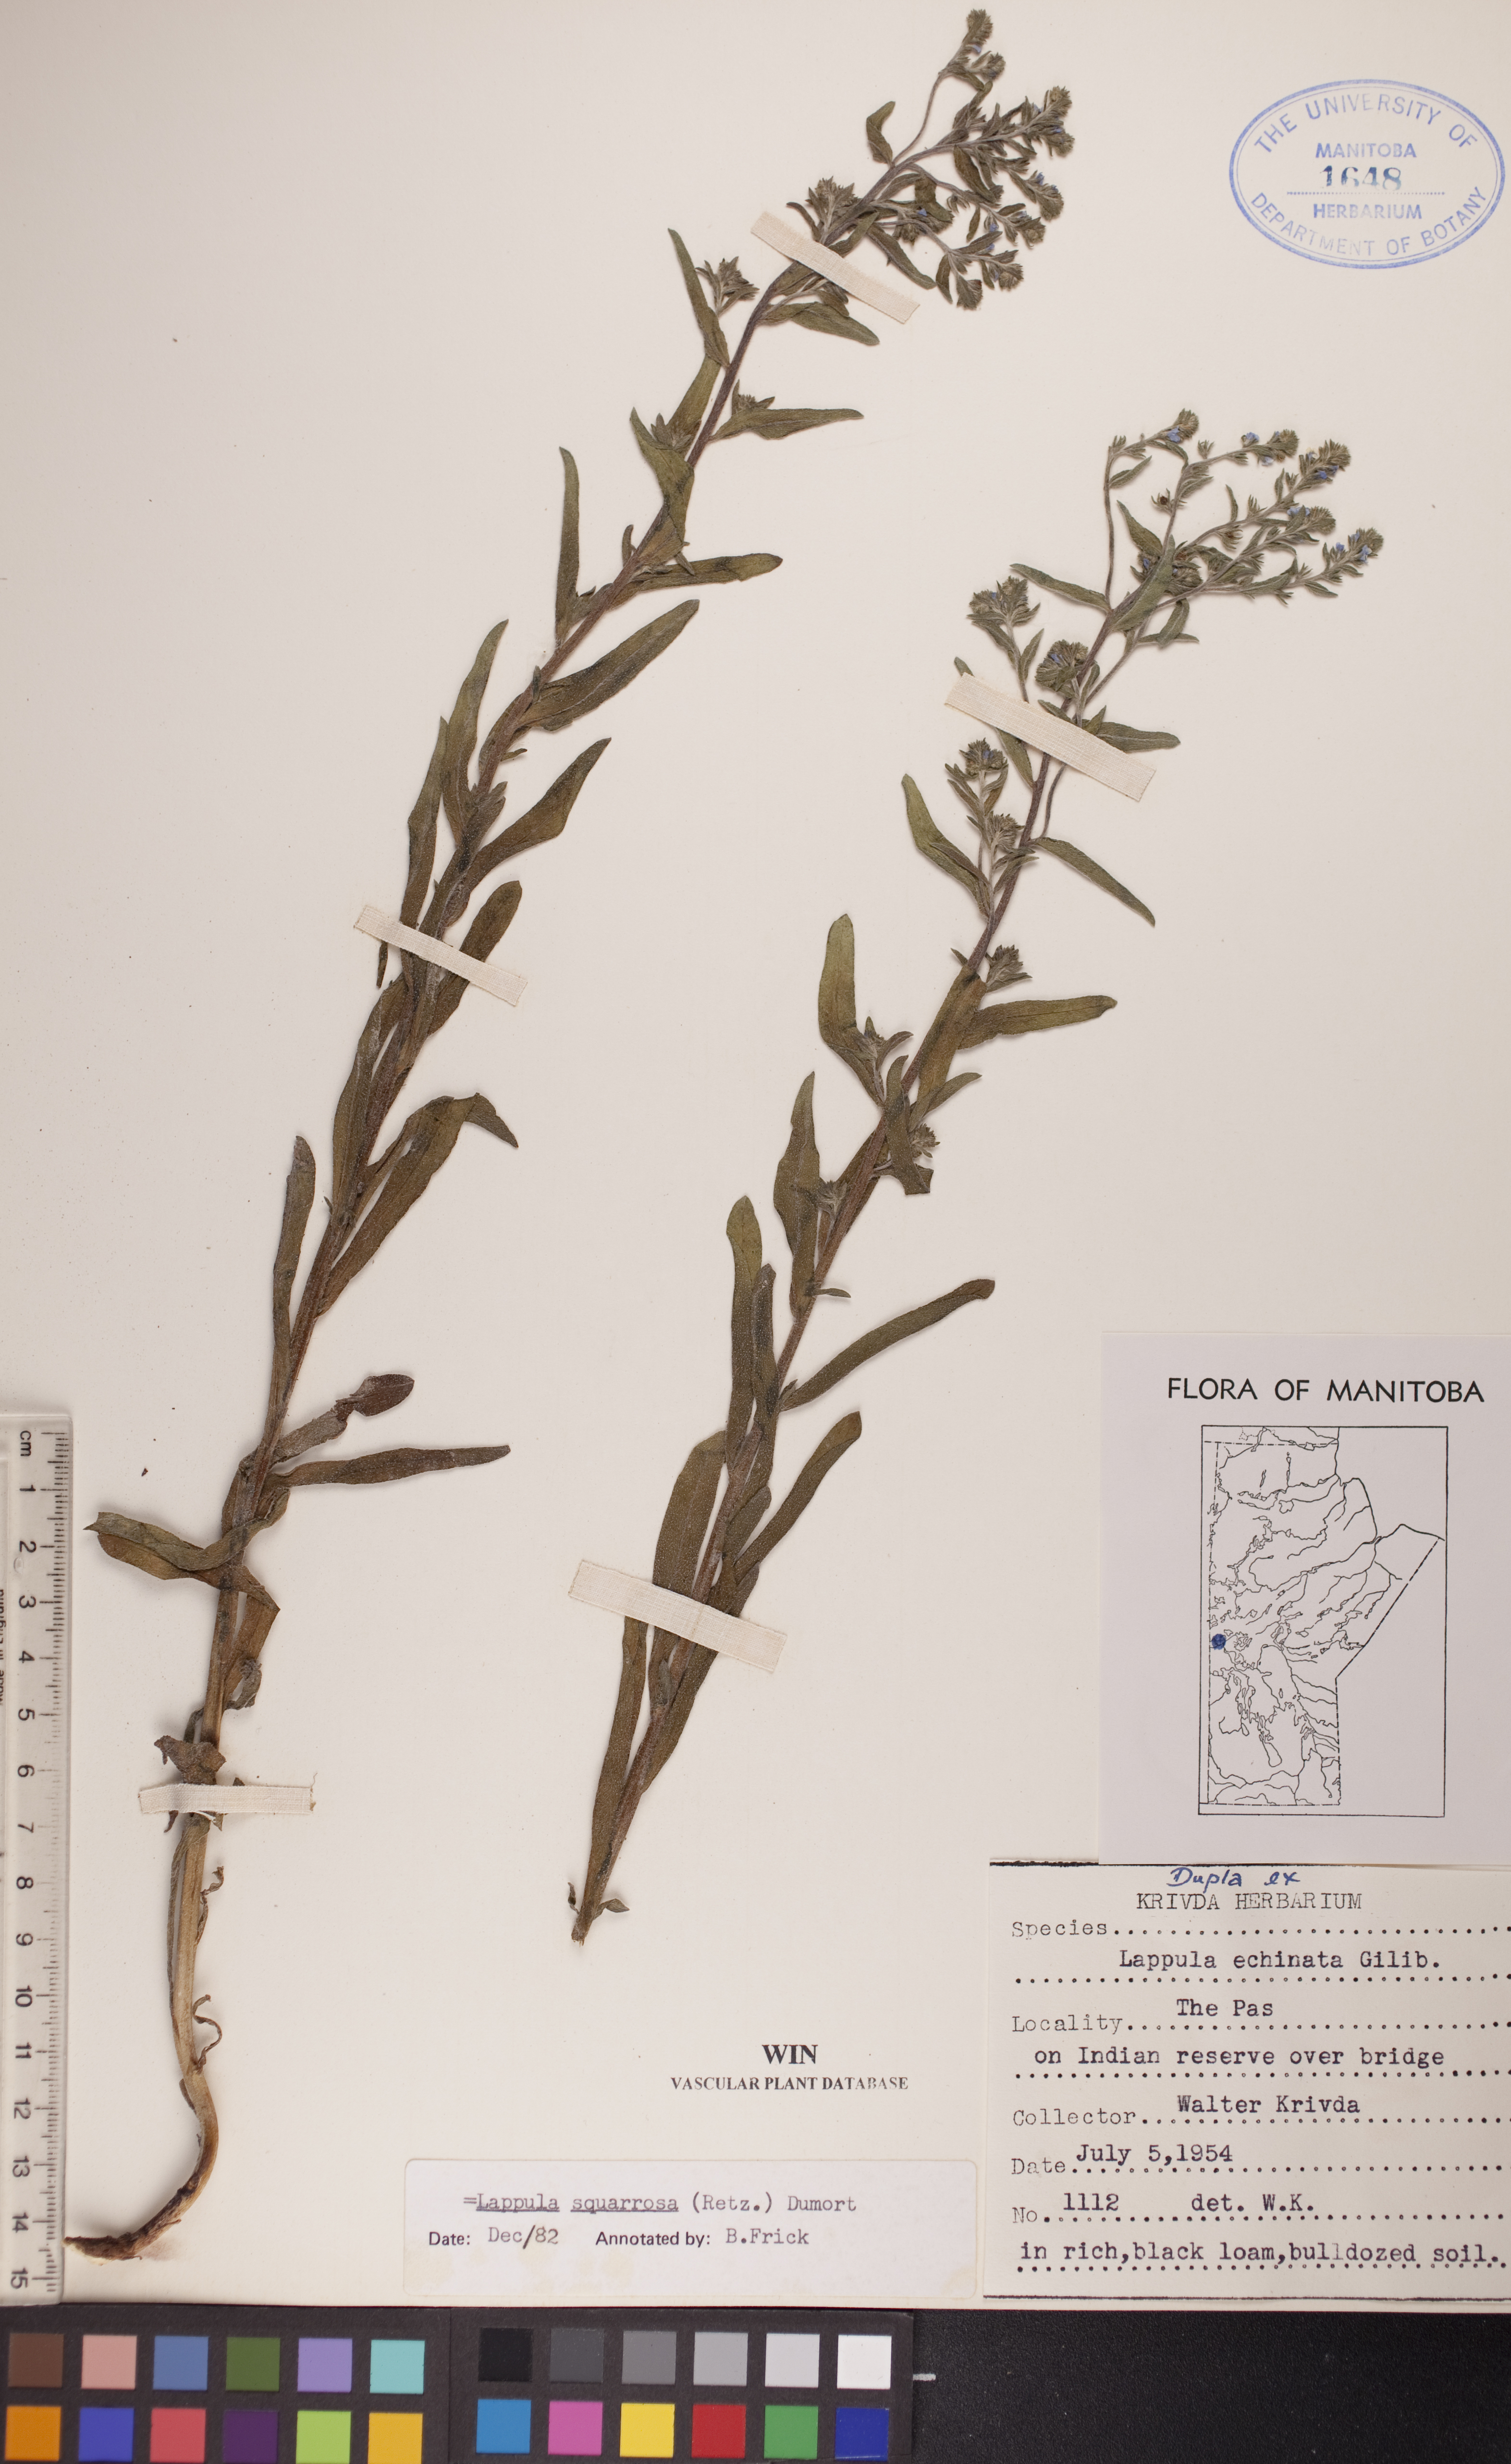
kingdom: Plantae
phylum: Tracheophyta
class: Magnoliopsida
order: Boraginales
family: Boraginaceae
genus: Lappula
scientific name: Lappula squarrosa
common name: European stickseed
